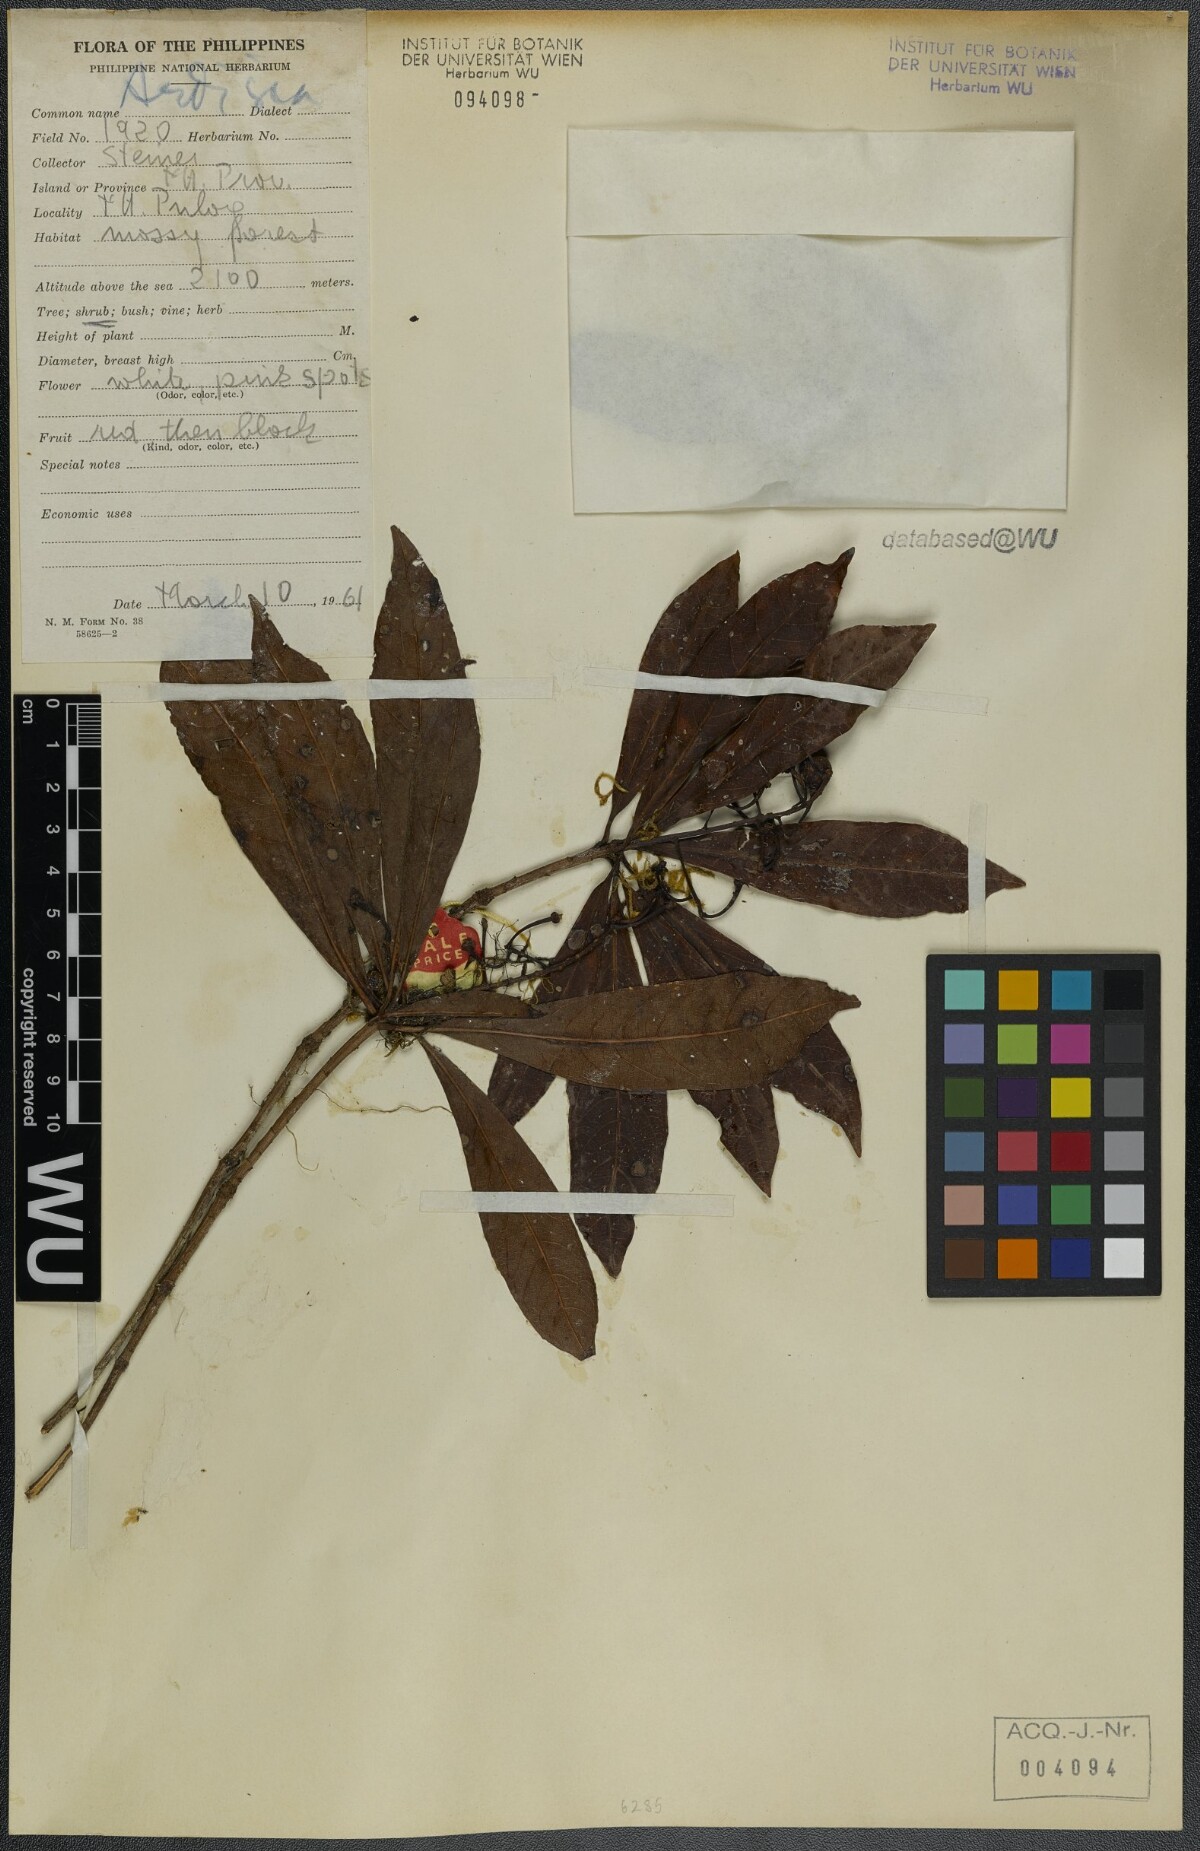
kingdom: Plantae
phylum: Tracheophyta
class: Magnoliopsida
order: Ericales
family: Primulaceae
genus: Ardisia
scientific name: Ardisia
